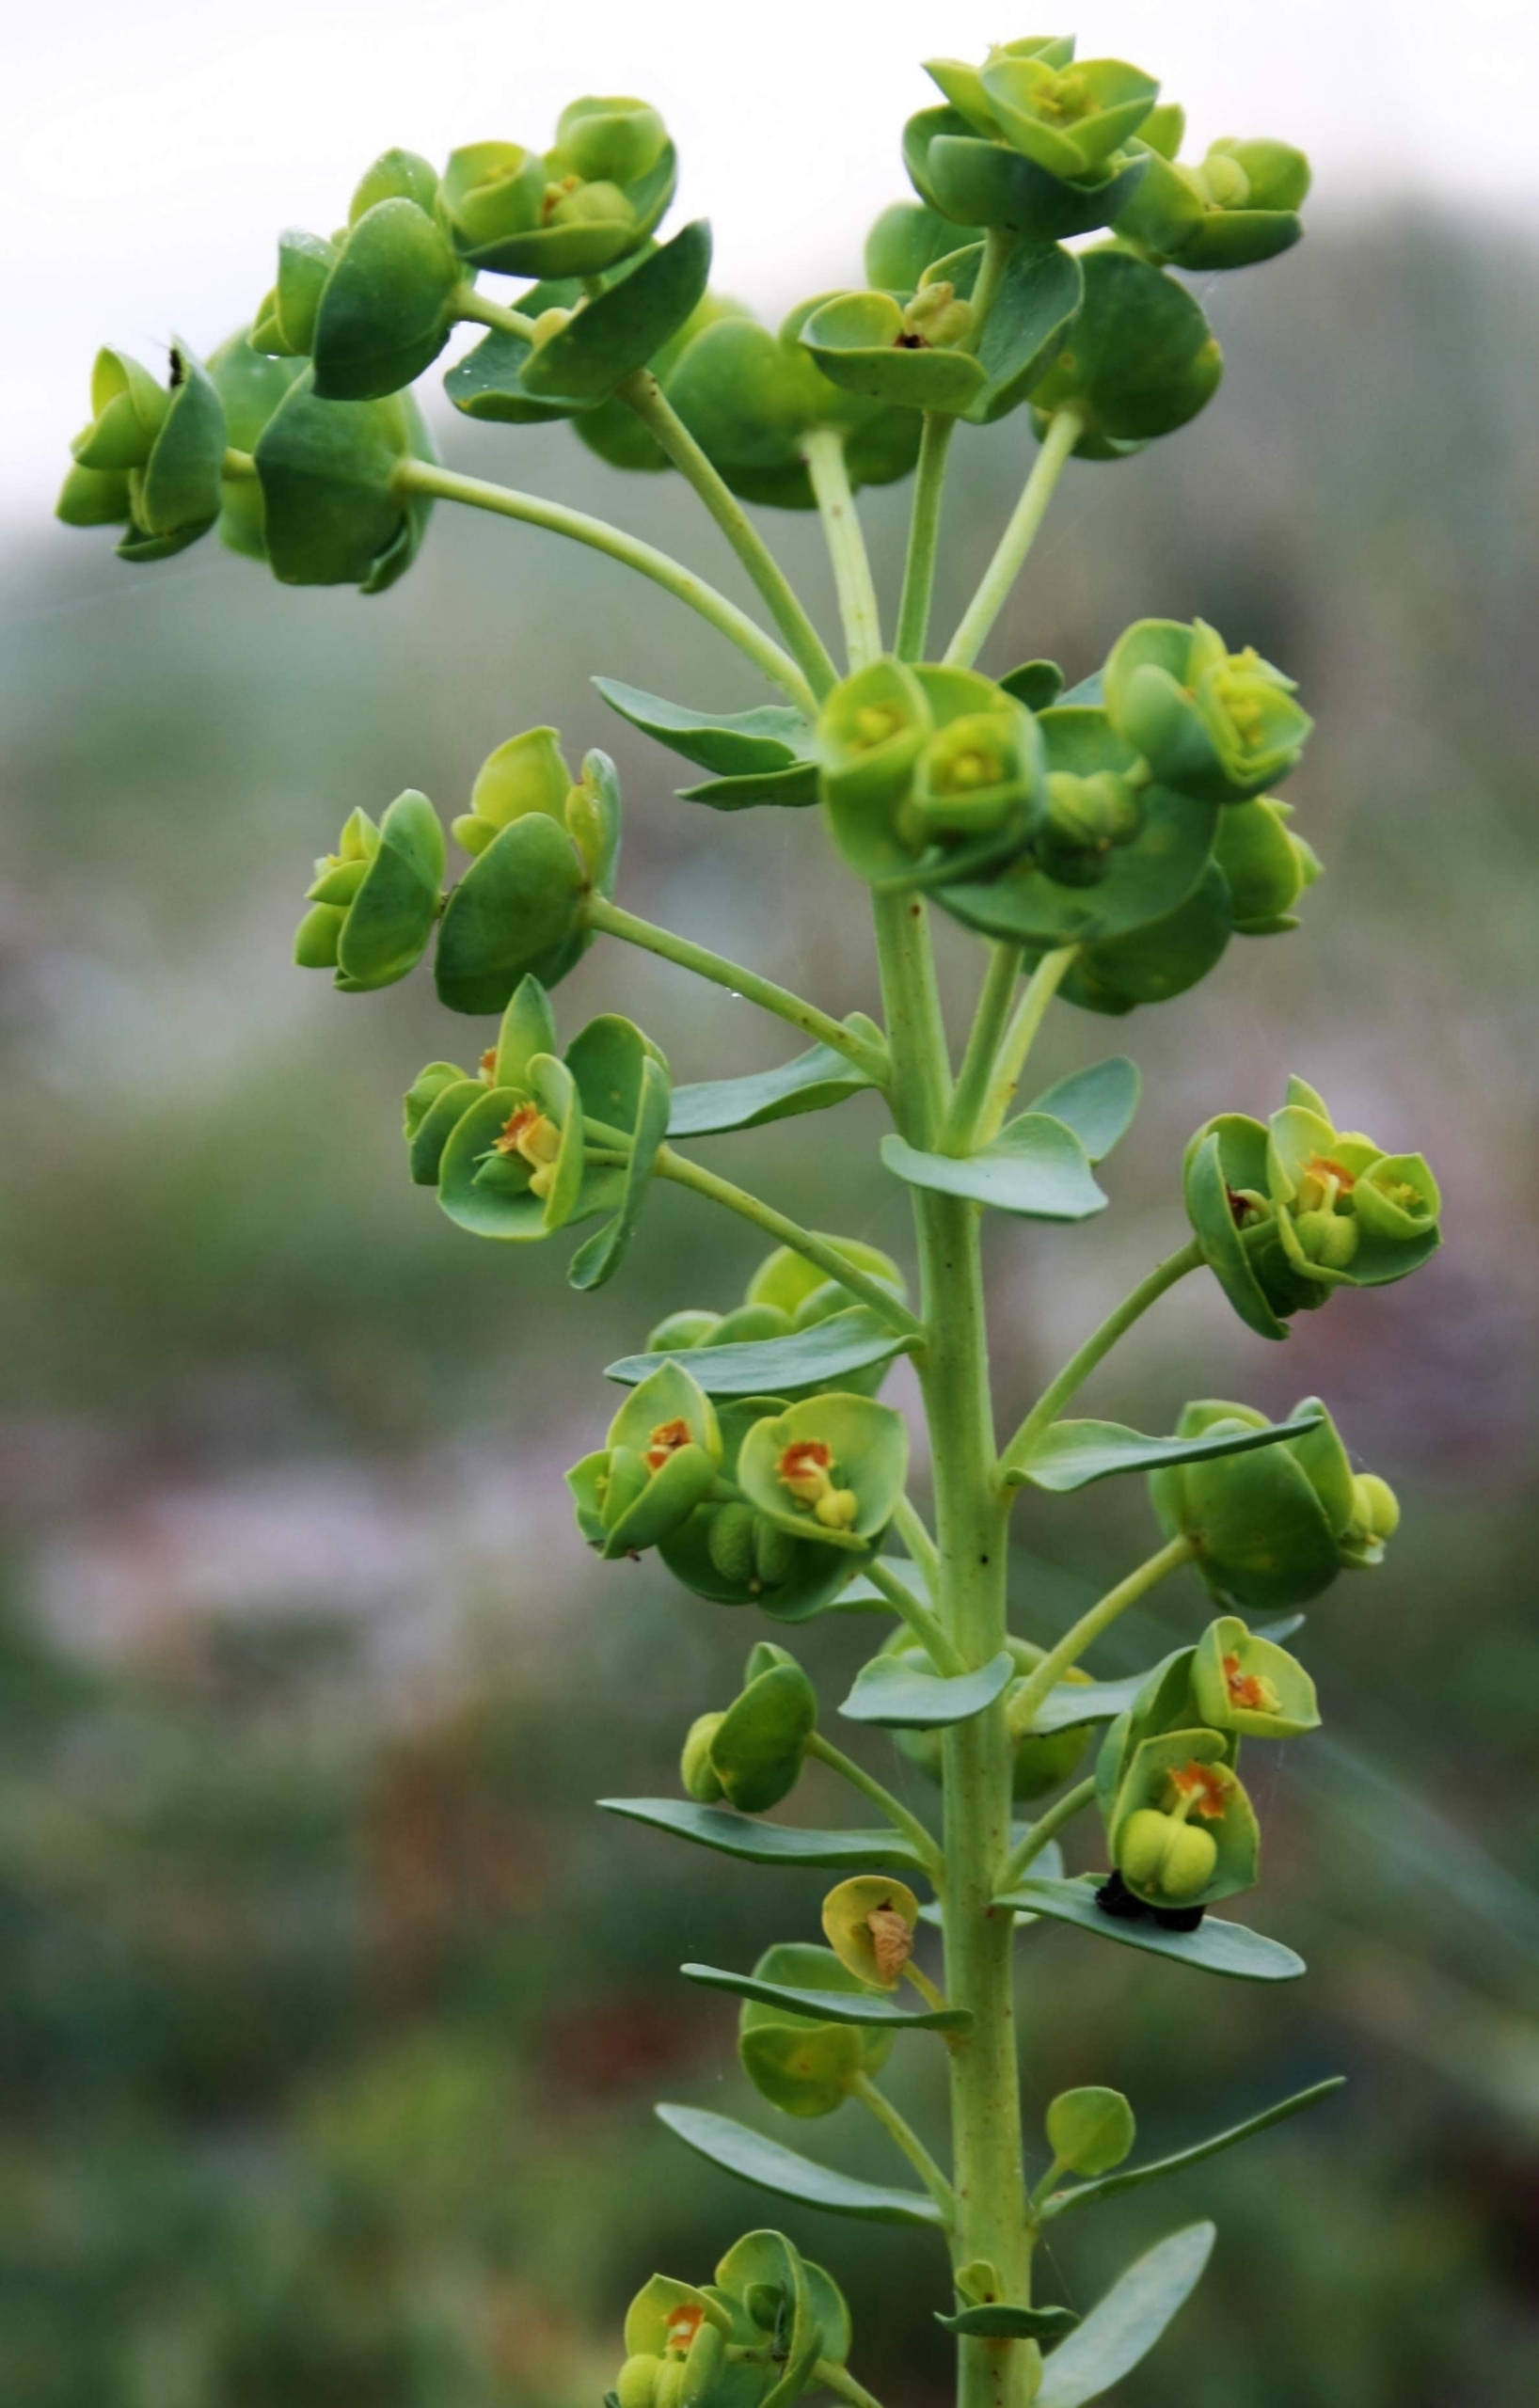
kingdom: Plantae
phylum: Tracheophyta
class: Magnoliopsida
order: Malpighiales
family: Euphorbiaceae
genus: Euphorbia
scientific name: Euphorbia paralias
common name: Kyst-vortemælk
